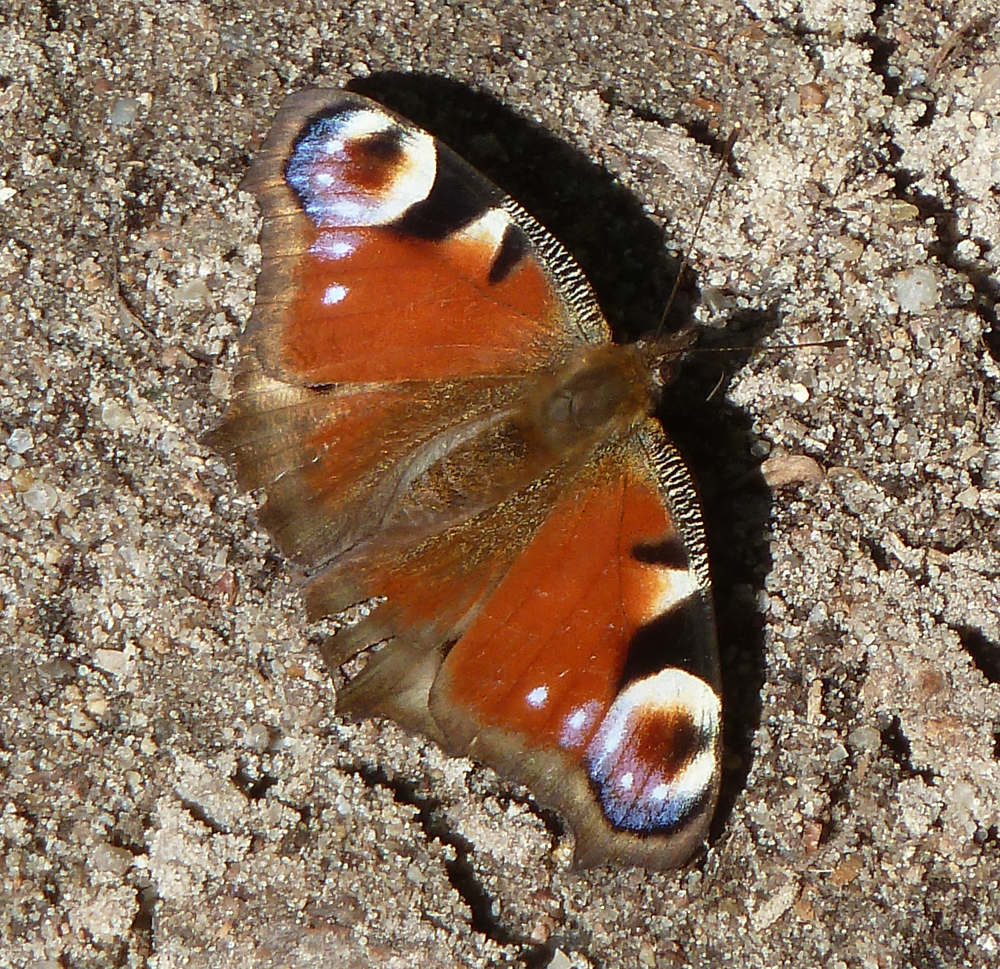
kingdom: Animalia
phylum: Arthropoda
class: Insecta
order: Lepidoptera
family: Nymphalidae
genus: Aglais
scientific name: Aglais io
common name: Peacock
